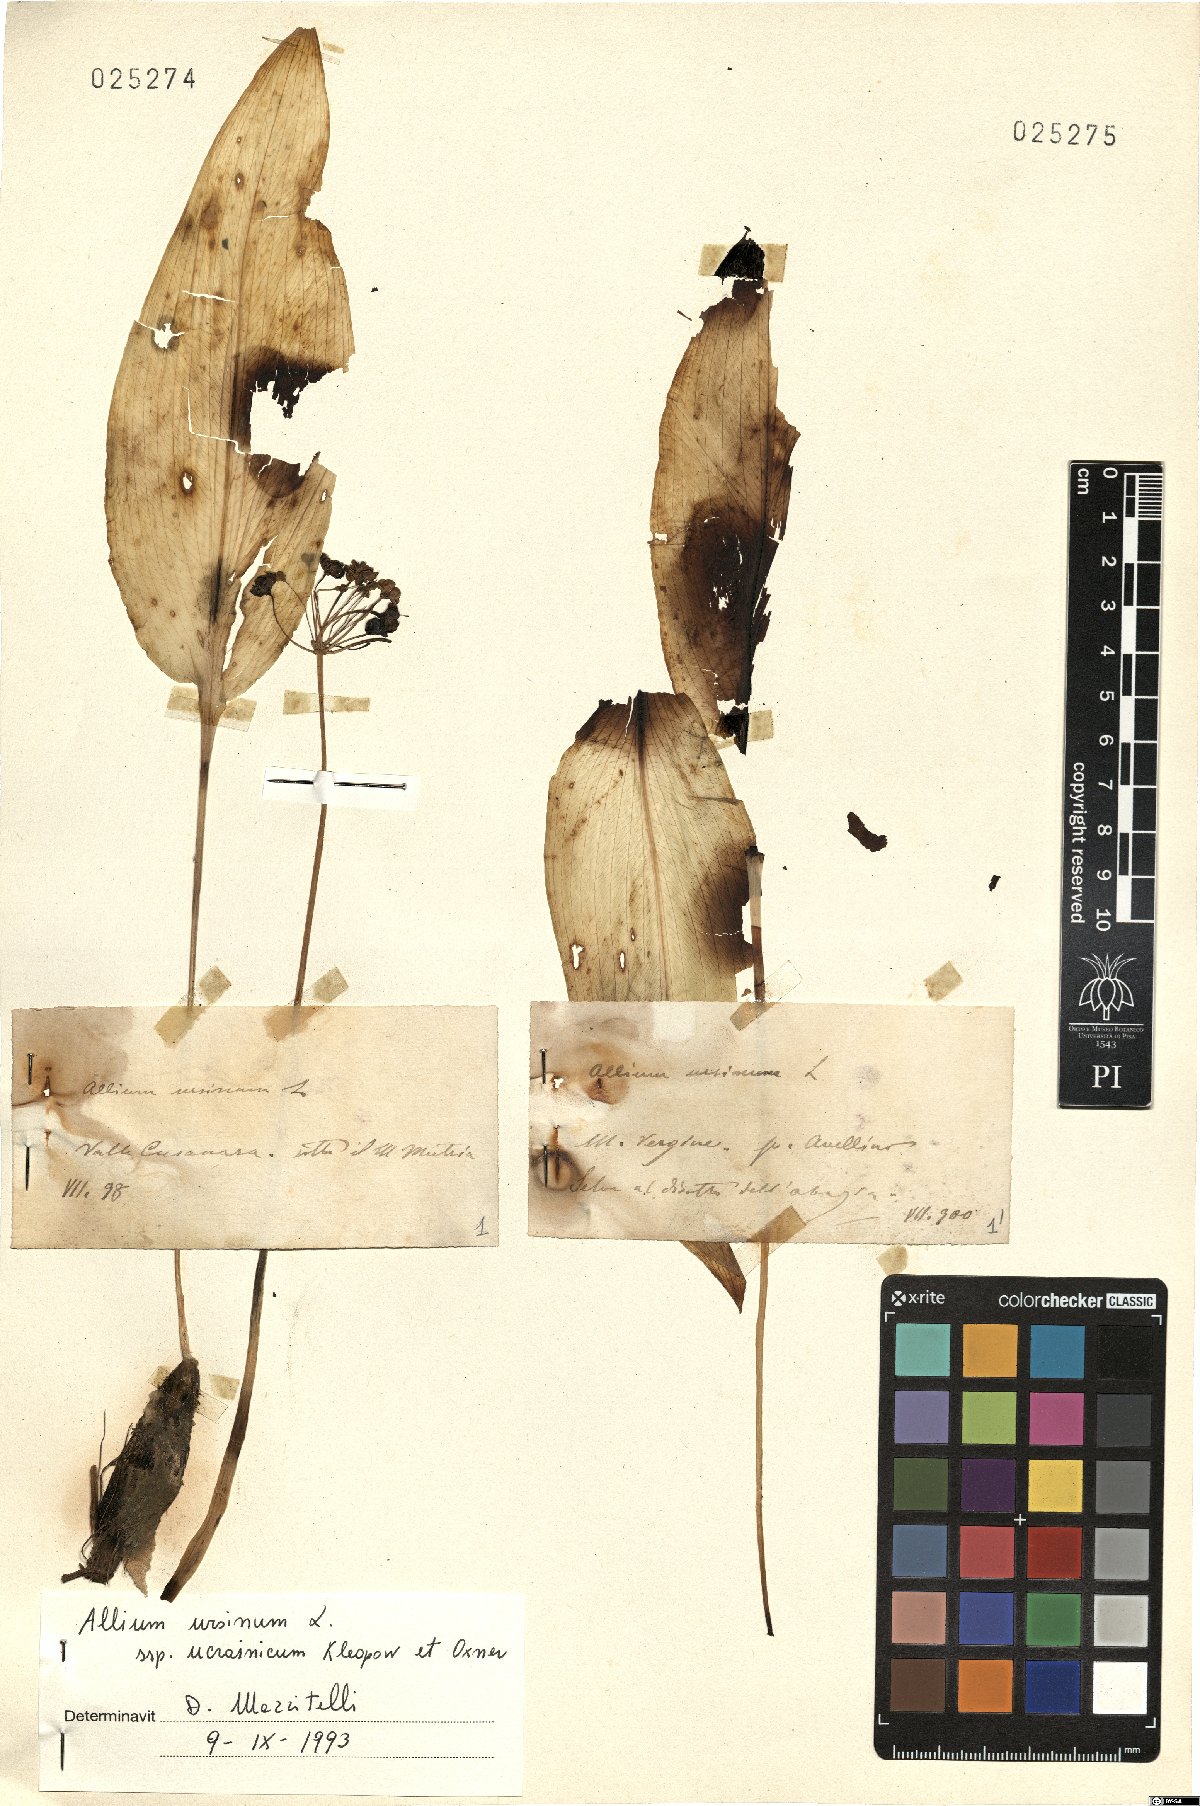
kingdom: Plantae
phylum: Tracheophyta
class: Liliopsida
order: Asparagales
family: Amaryllidaceae
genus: Allium
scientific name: Allium ursinum
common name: Ramsons
